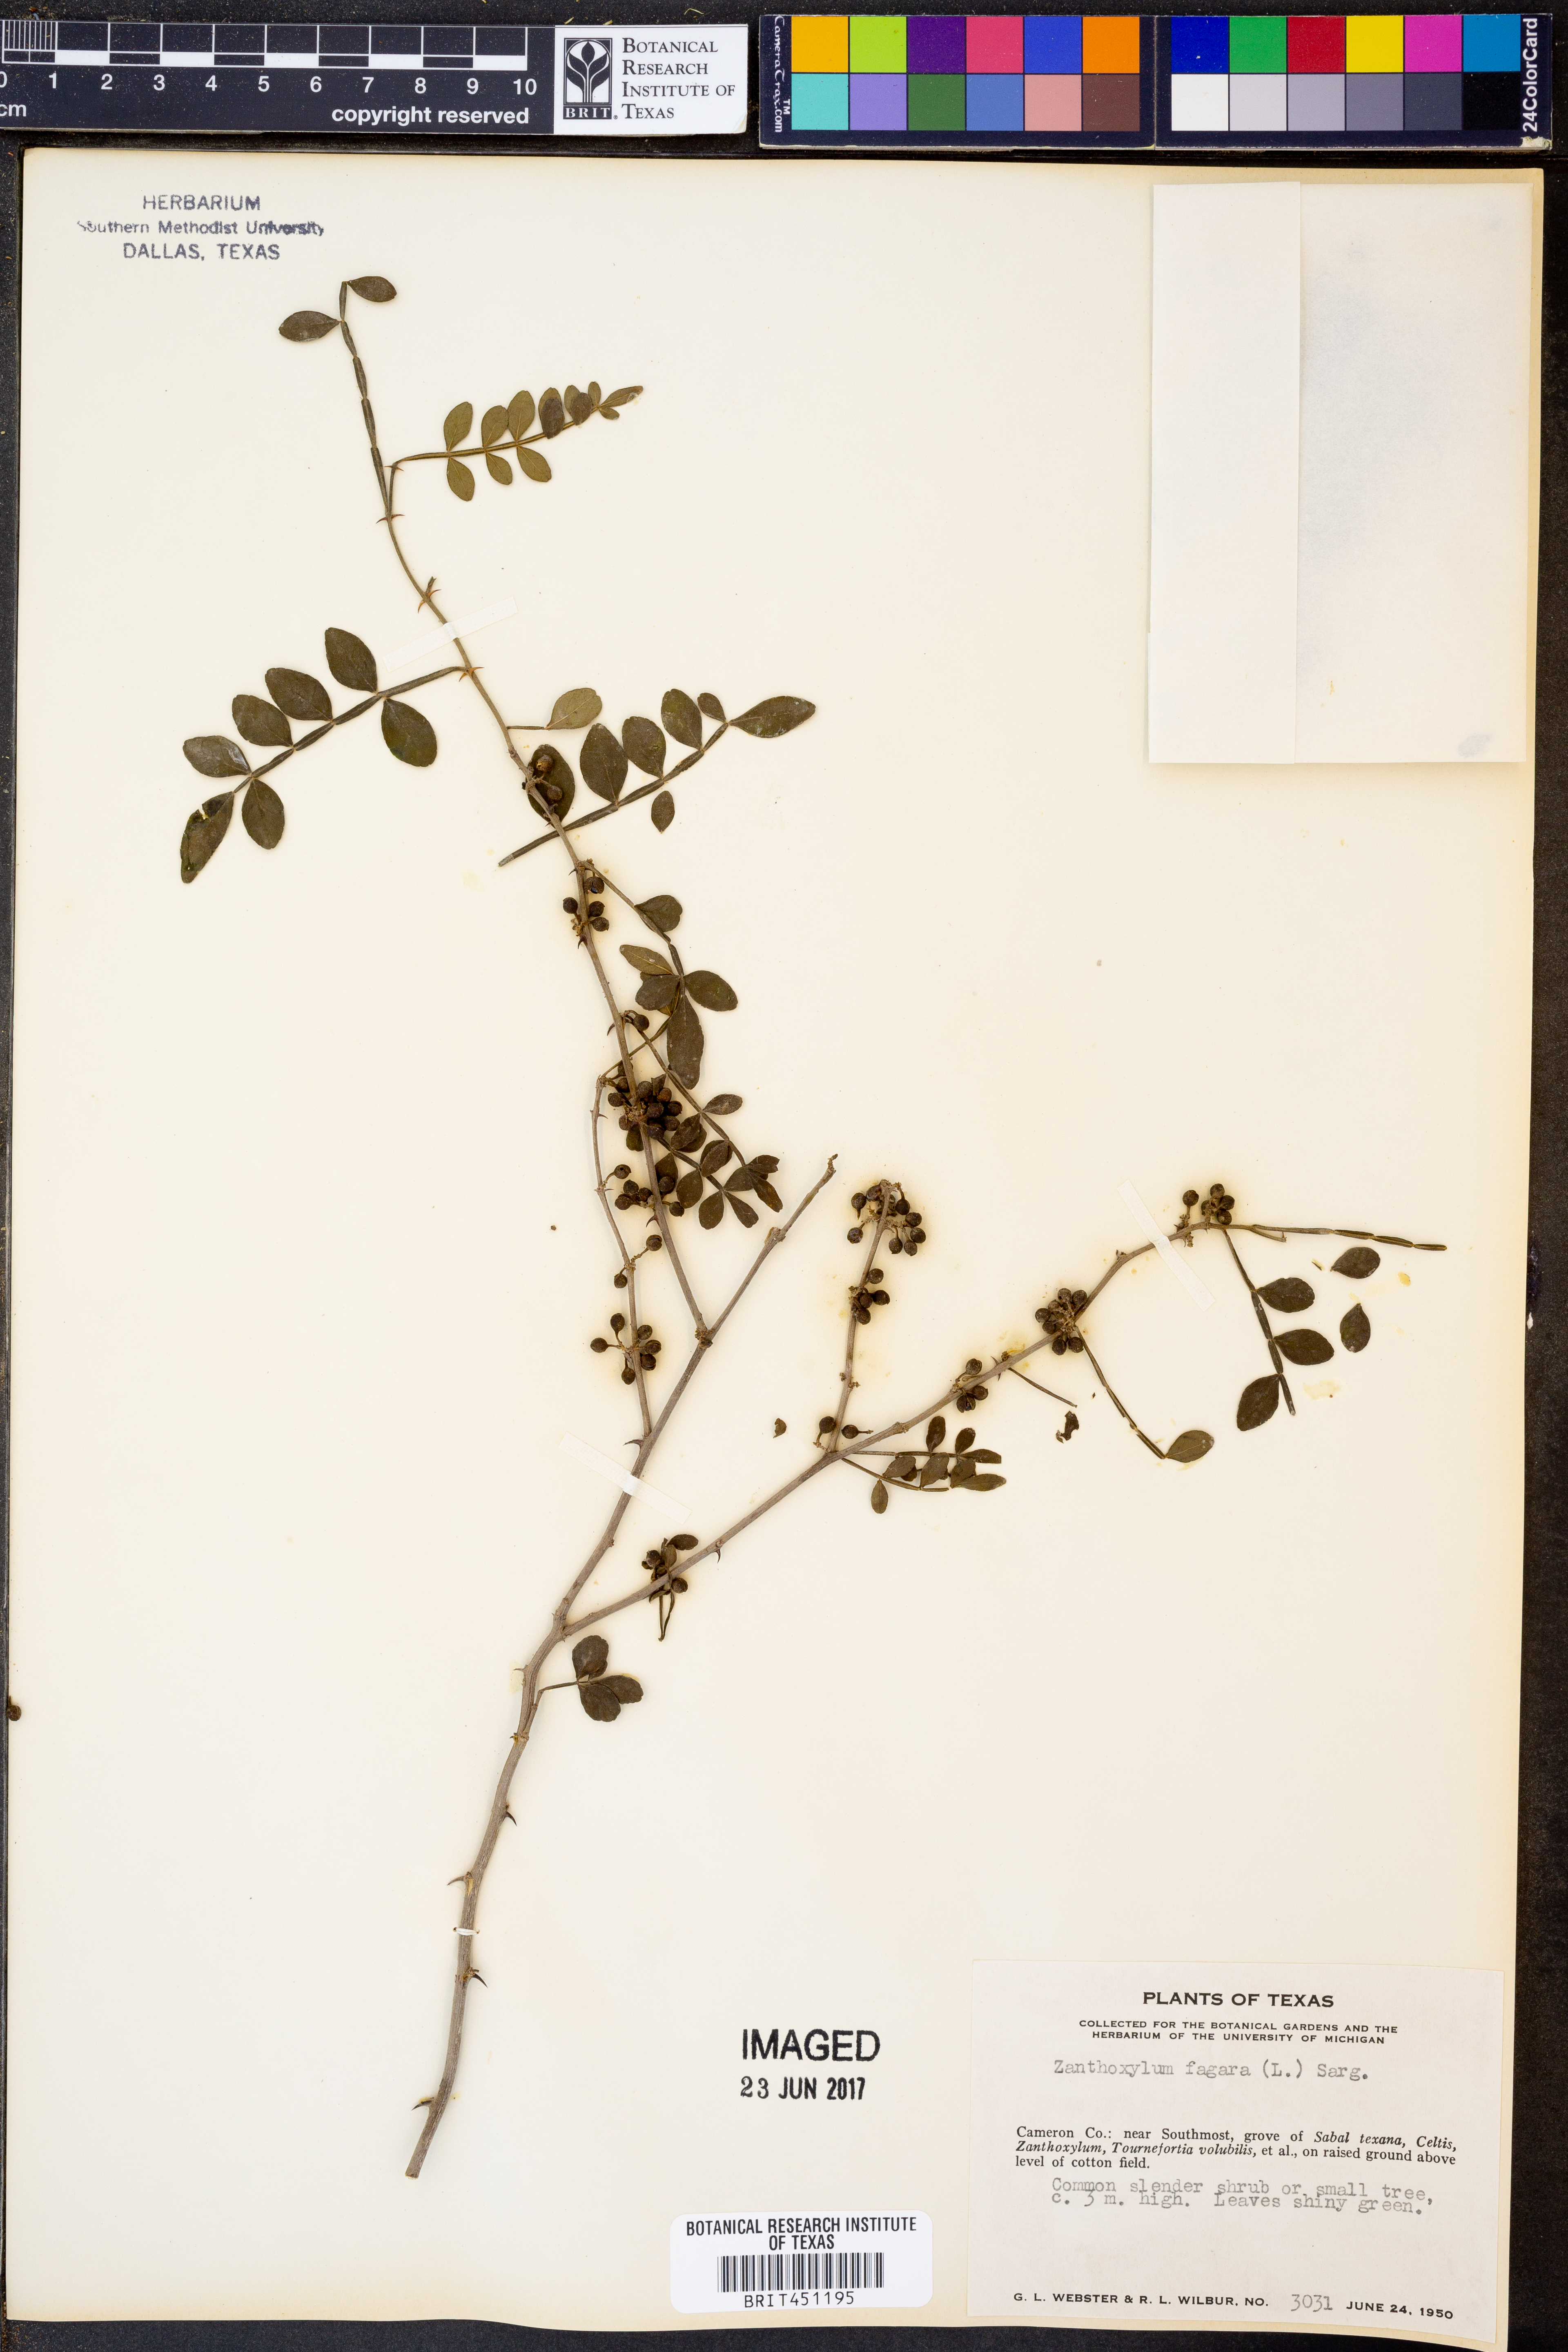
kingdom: Plantae
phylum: Tracheophyta
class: Magnoliopsida
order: Sapindales
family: Rutaceae
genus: Zanthoxylum
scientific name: Zanthoxylum fagara
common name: Lime prickly-ash
